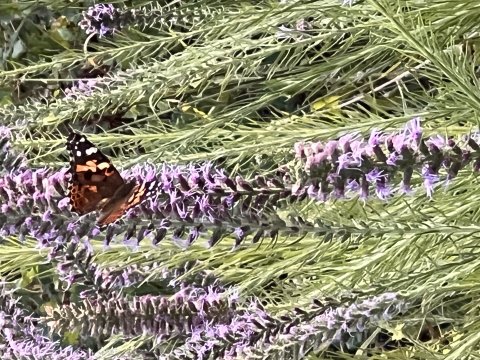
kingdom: Animalia
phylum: Arthropoda
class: Insecta
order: Lepidoptera
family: Nymphalidae
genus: Vanessa
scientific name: Vanessa cardui
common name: Painted Lady
